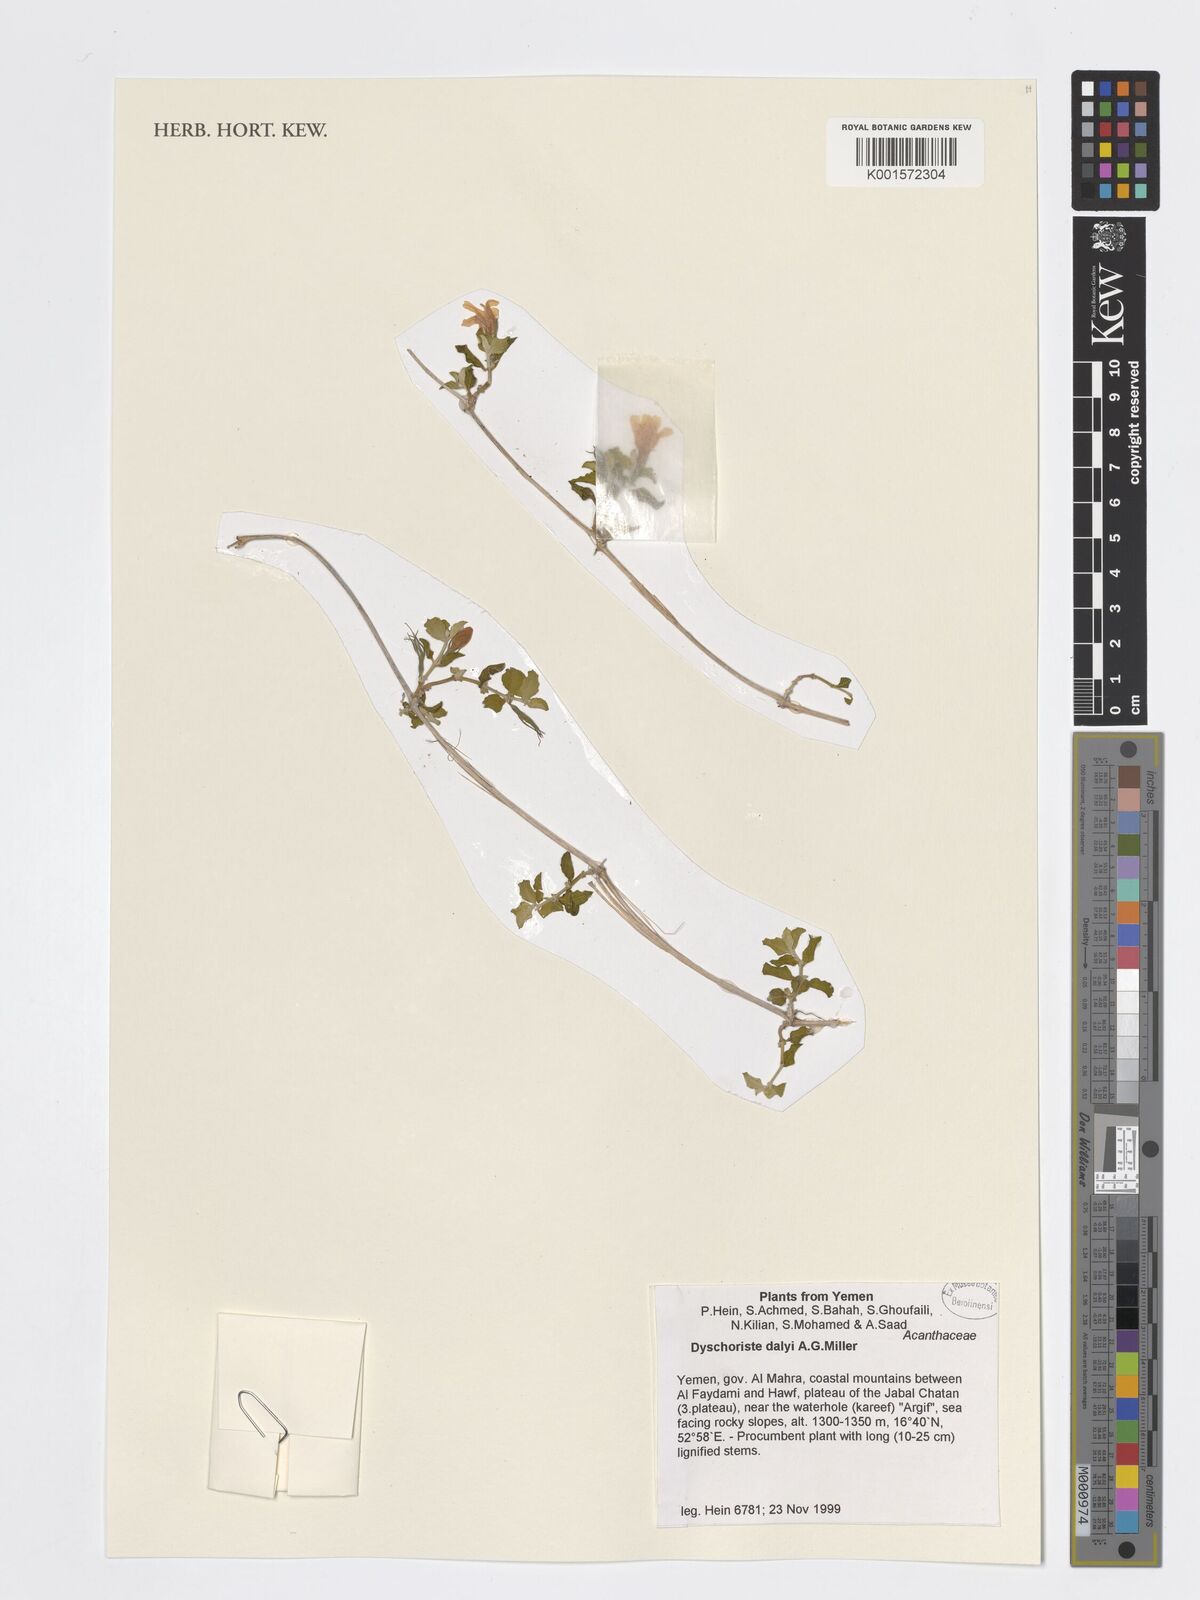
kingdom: Plantae
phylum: Tracheophyta
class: Magnoliopsida
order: Lamiales
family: Acanthaceae
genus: Dyschoriste
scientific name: Dyschoriste dalyi
